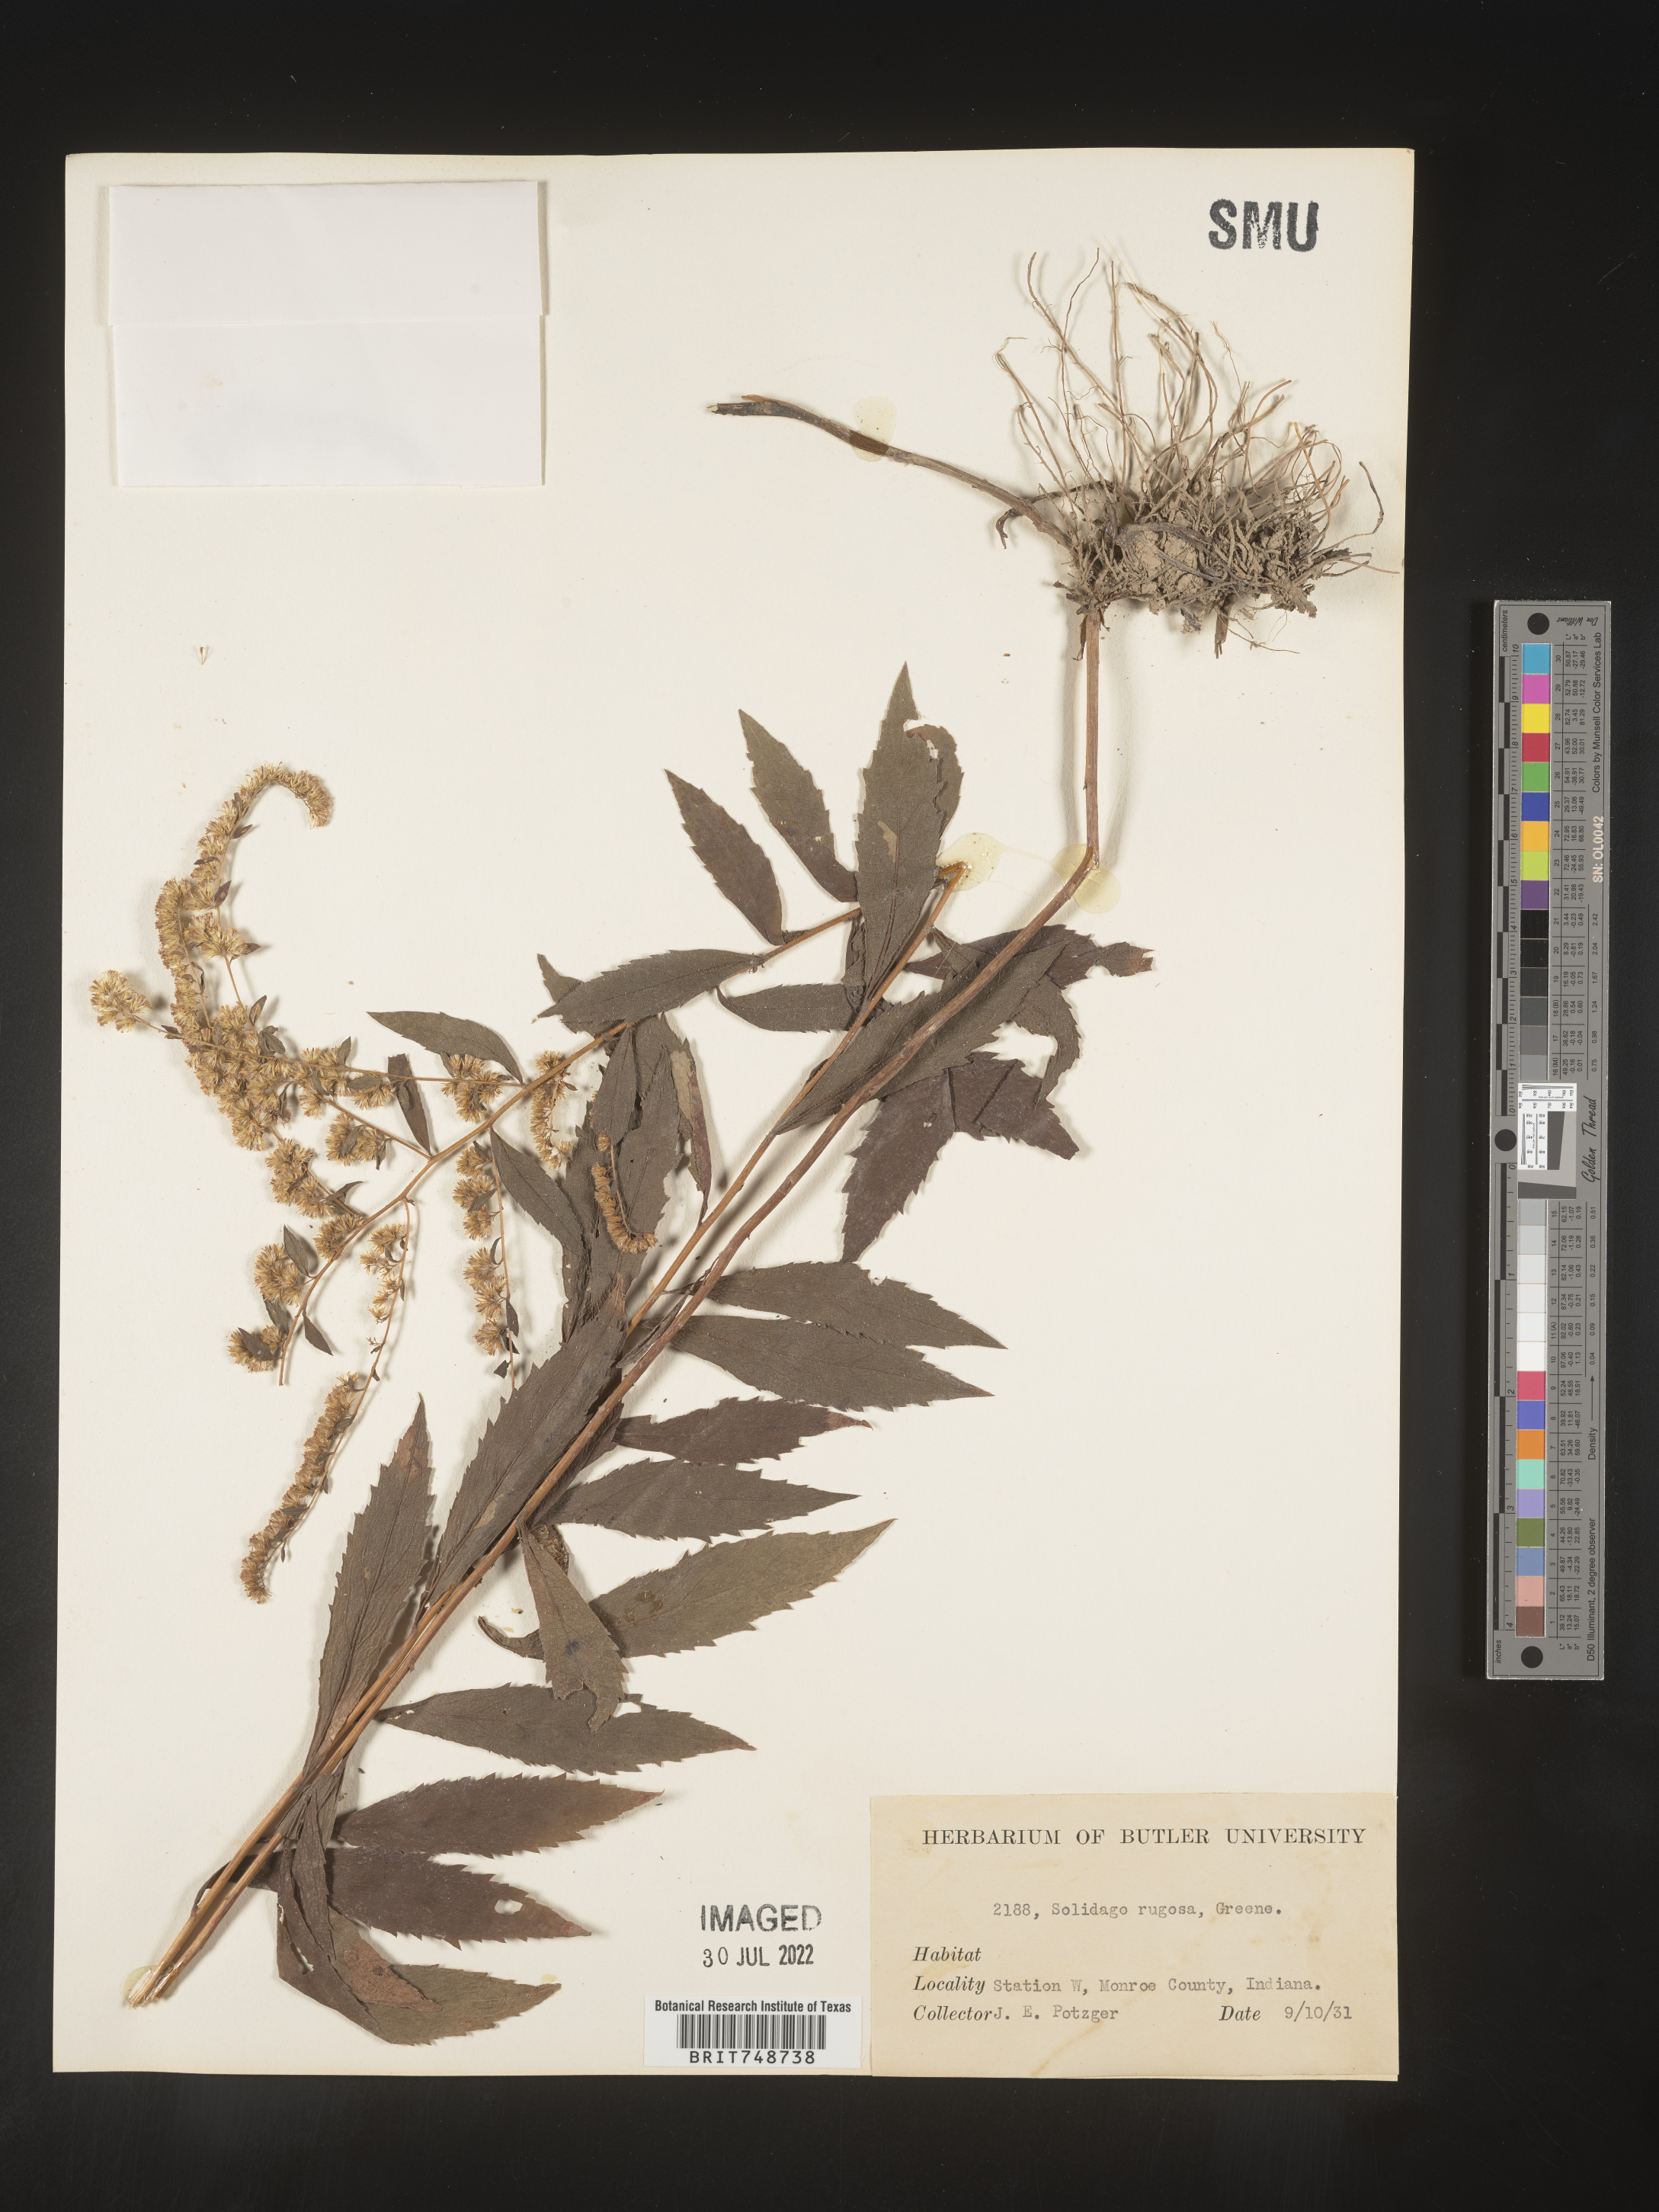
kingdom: Plantae
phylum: Tracheophyta
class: Magnoliopsida
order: Asterales
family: Asteraceae
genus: Solidago
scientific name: Solidago rugosa
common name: Rough-stemmed goldenrod
